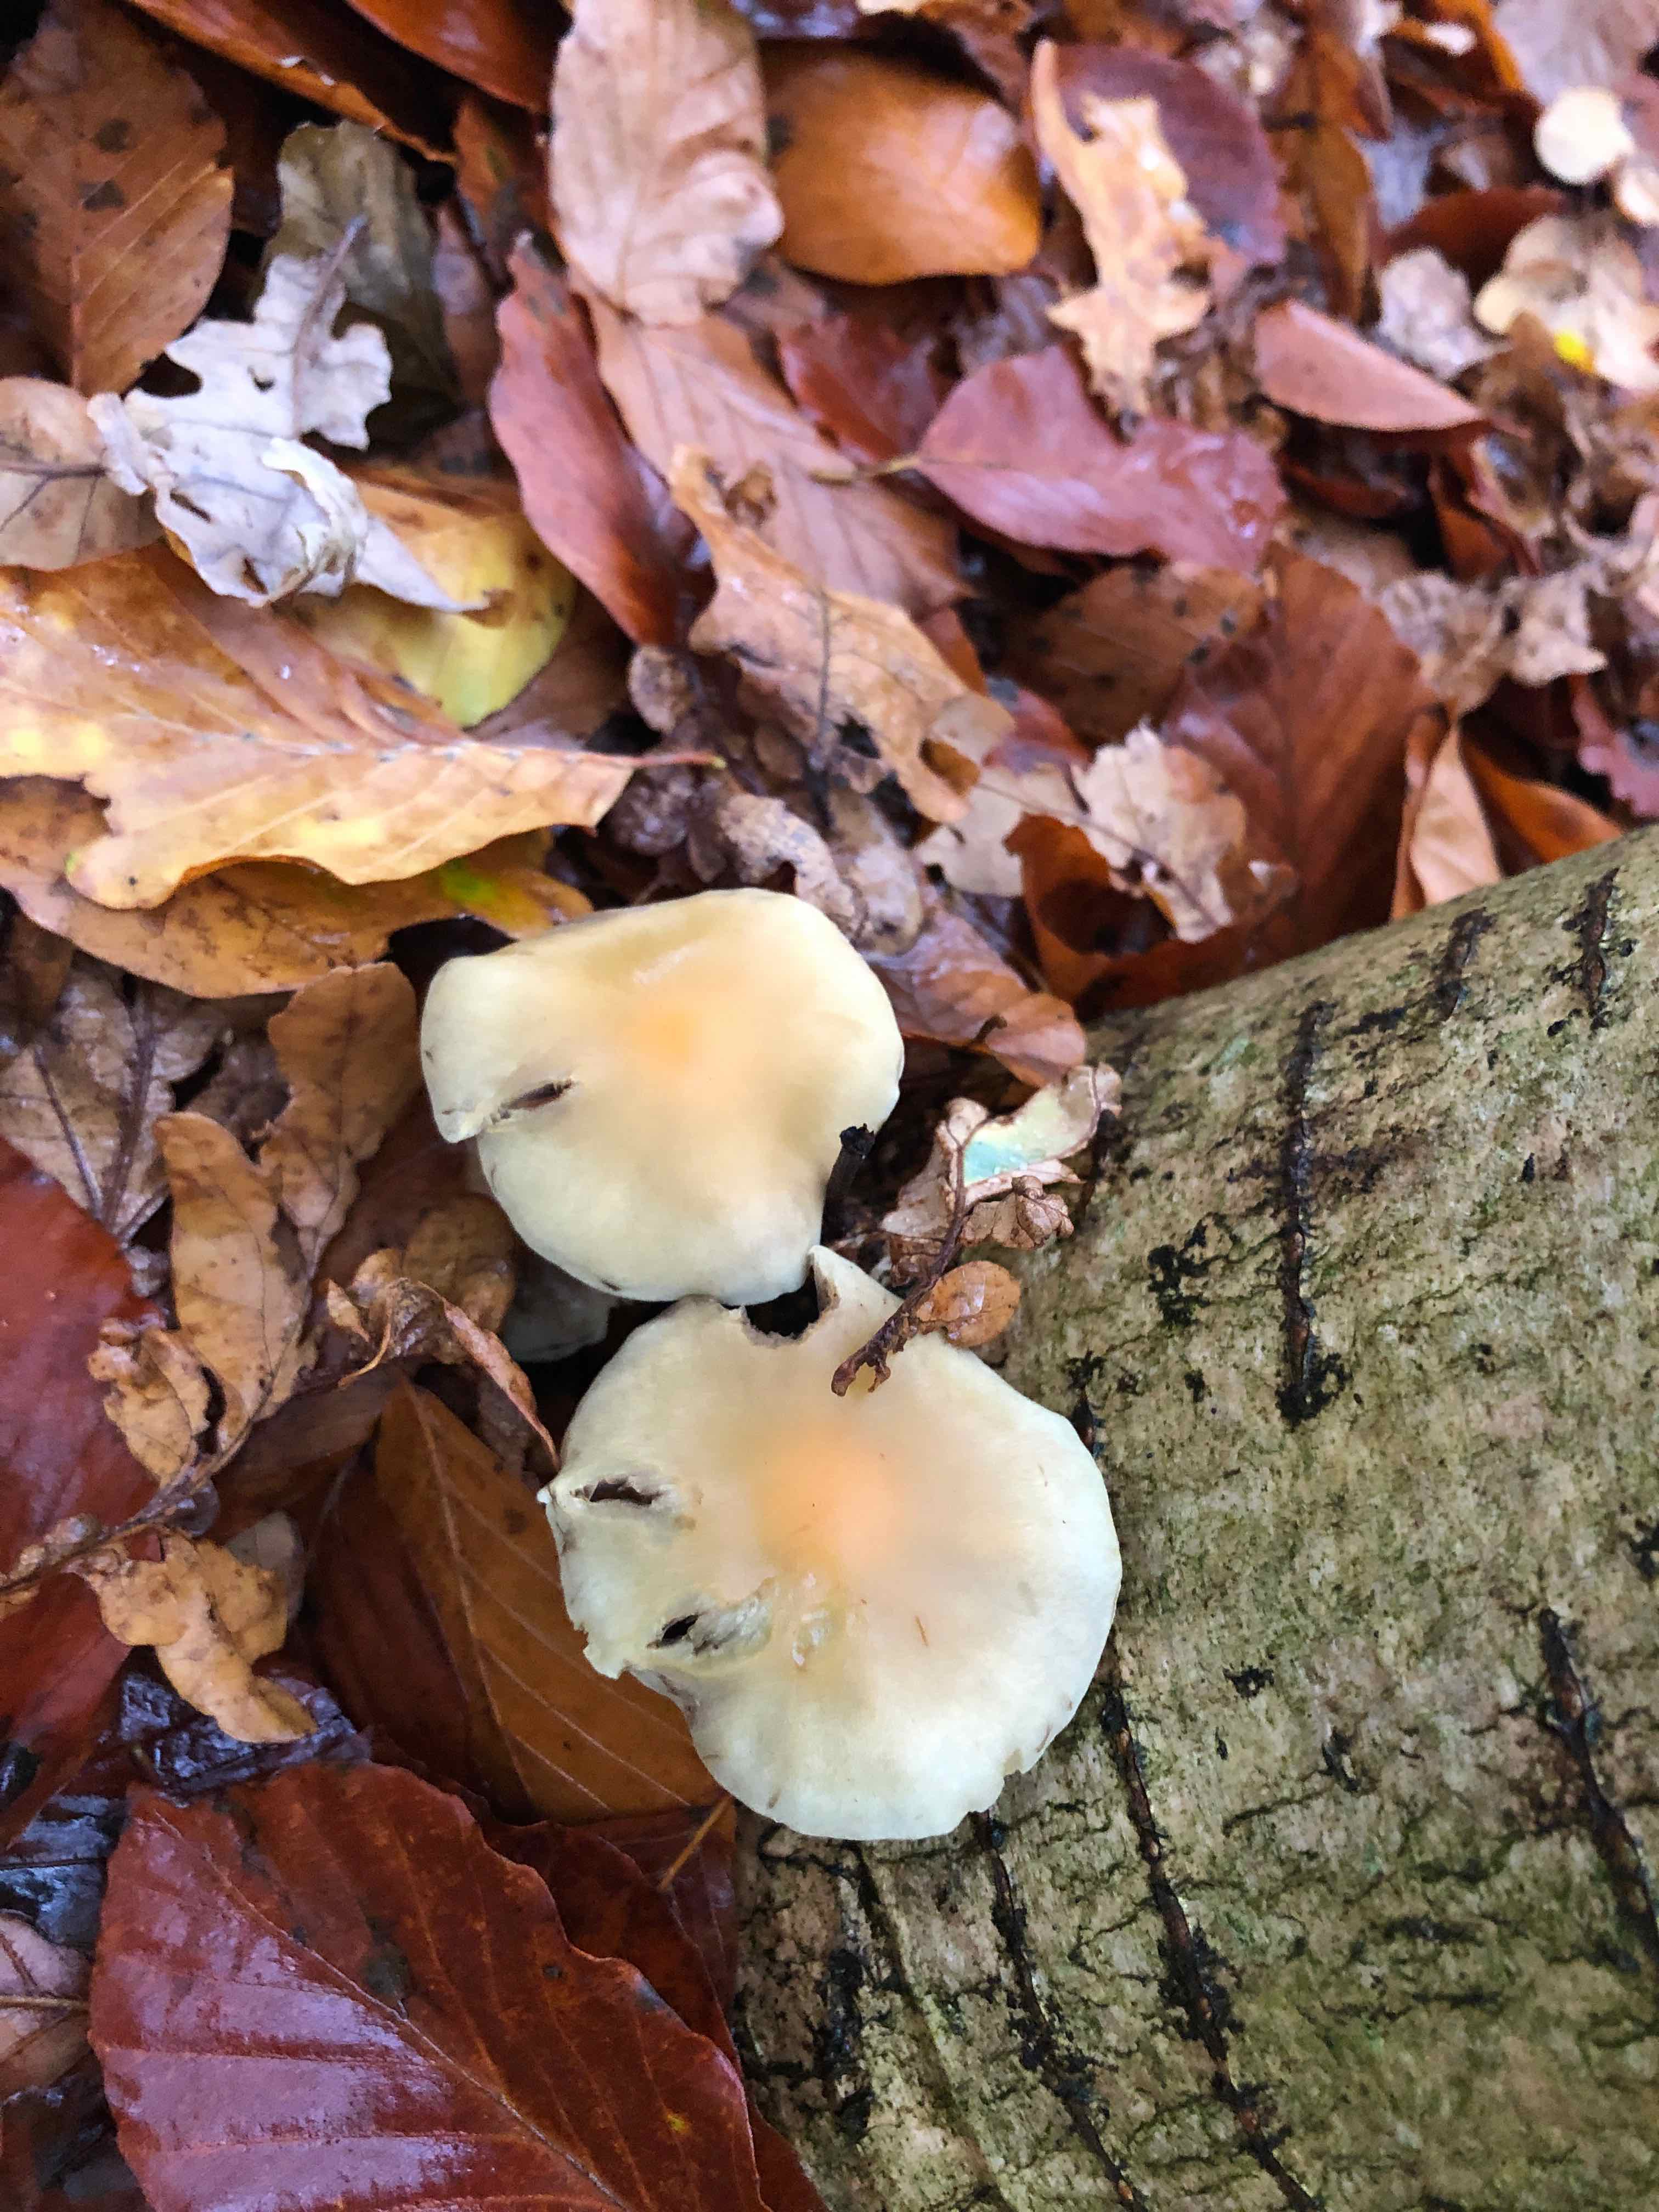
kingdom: Fungi
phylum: Basidiomycota
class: Agaricomycetes
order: Agaricales
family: Strophariaceae
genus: Hypholoma
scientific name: Hypholoma
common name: svovlhat
